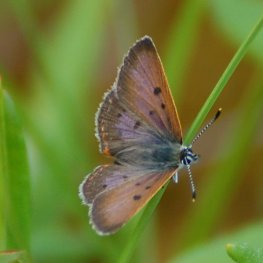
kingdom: Animalia
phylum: Arthropoda
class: Insecta
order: Lepidoptera
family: Sesiidae
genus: Sesia
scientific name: Sesia Lycaena epixanthe
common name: Bog Copper
